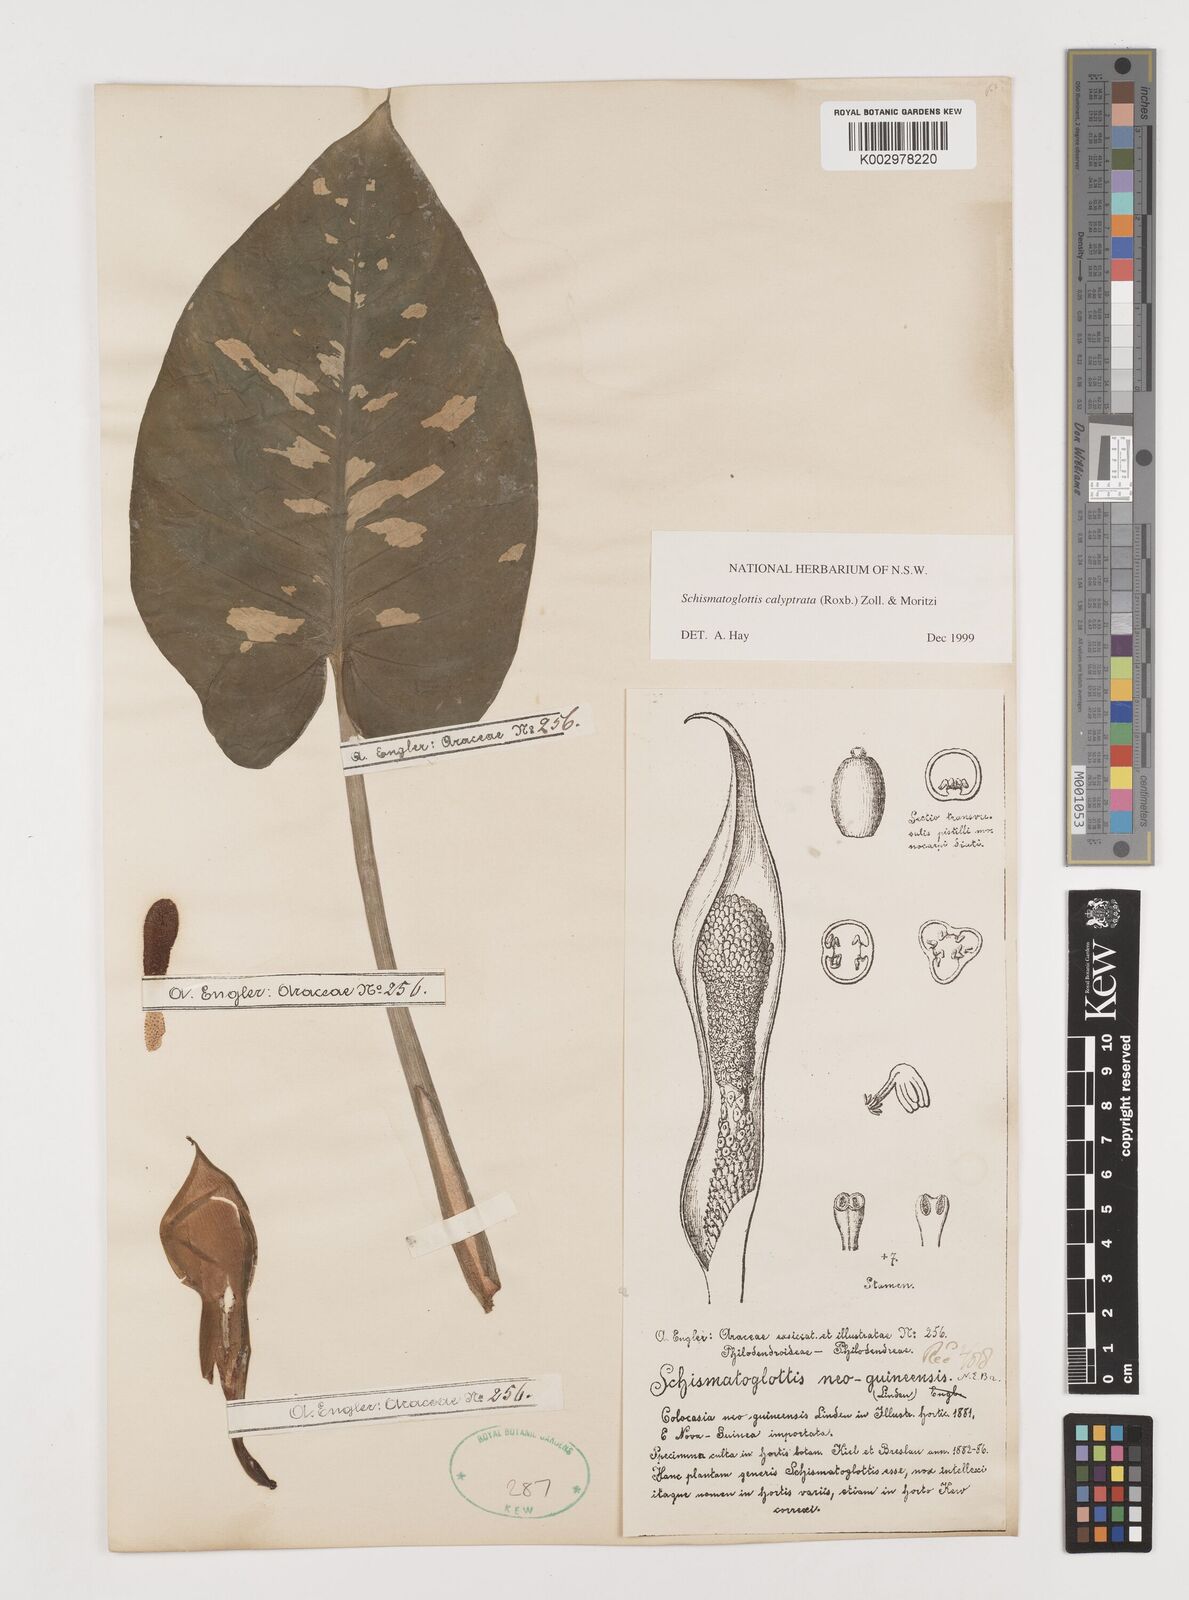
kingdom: Plantae
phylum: Tracheophyta
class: Liliopsida
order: Alismatales
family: Araceae
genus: Schismatoglottis
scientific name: Schismatoglottis calyptrata
